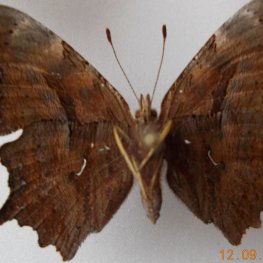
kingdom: Animalia
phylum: Arthropoda
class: Insecta
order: Lepidoptera
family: Nymphalidae
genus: Polygonia
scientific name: Polygonia satyrus
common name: Satyr Comma
